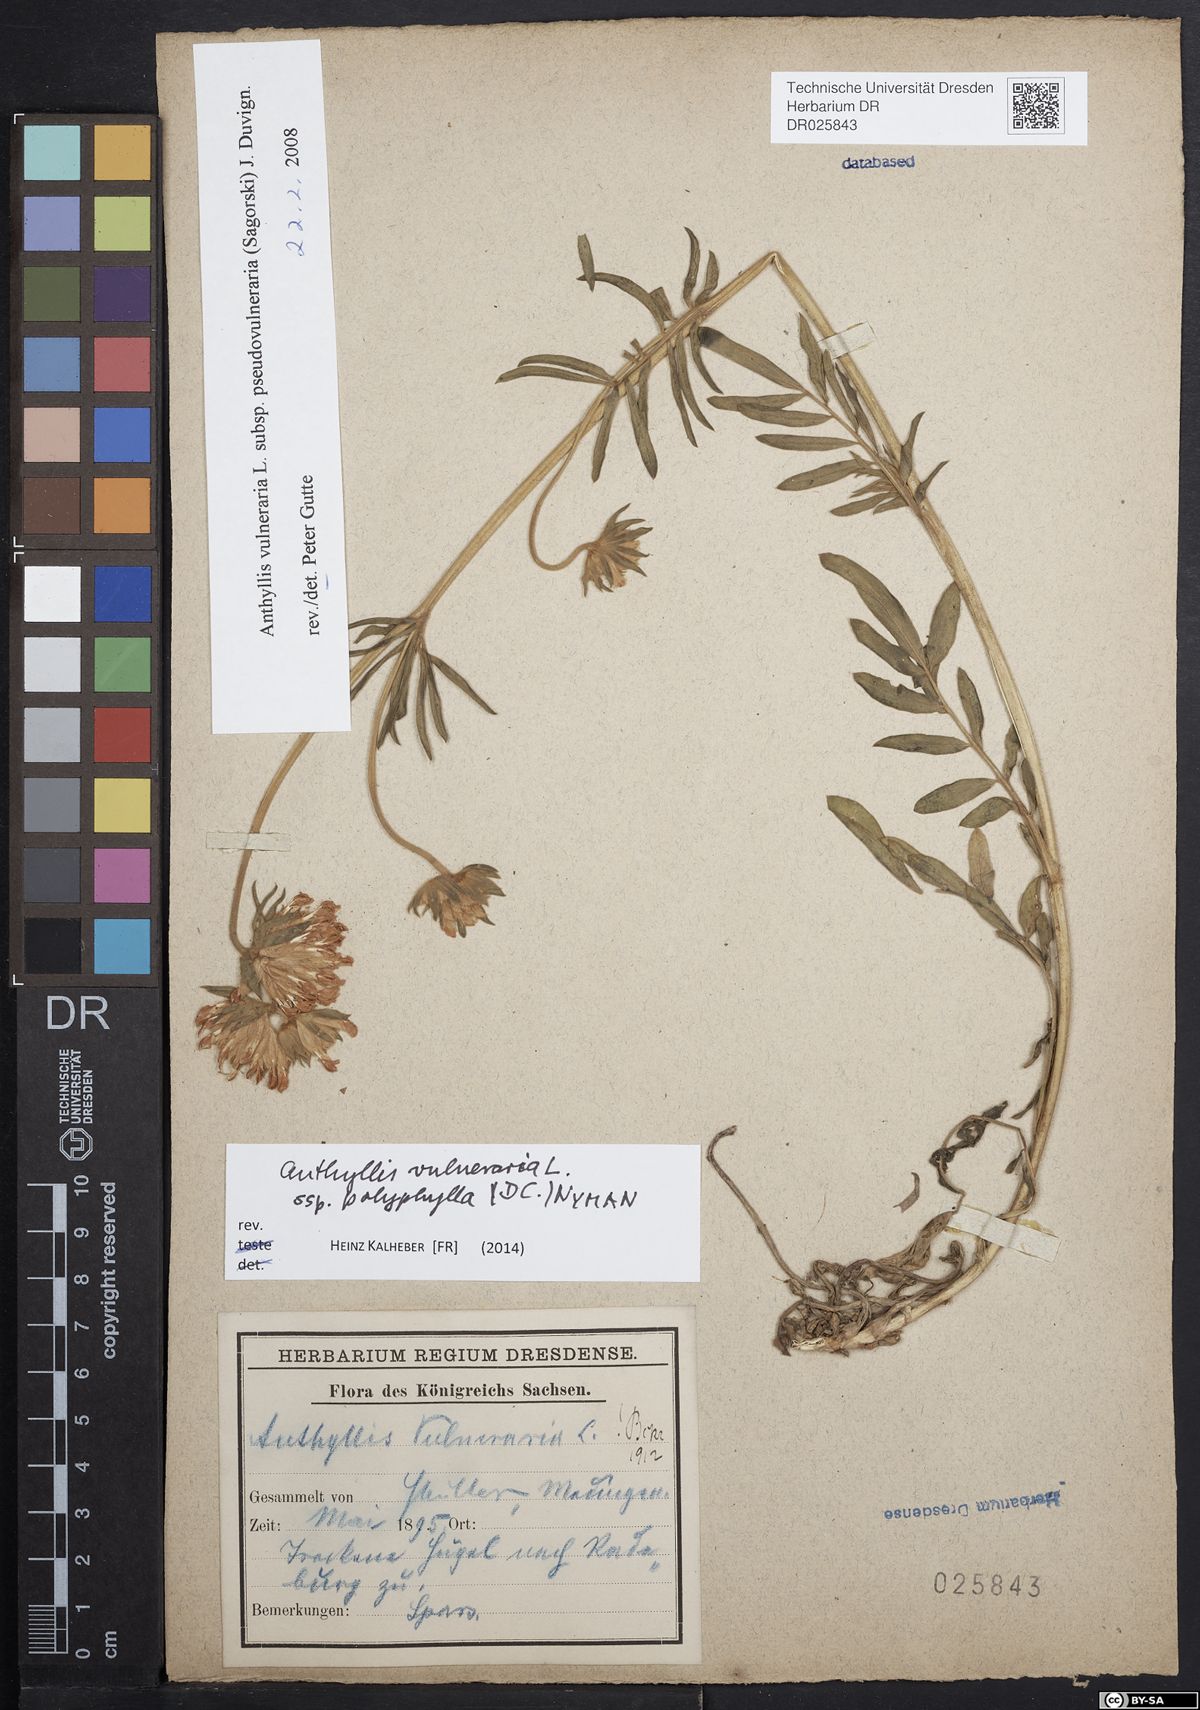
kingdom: Plantae
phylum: Tracheophyta
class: Magnoliopsida
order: Fabales
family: Fabaceae
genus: Anthyllis
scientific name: Anthyllis vulneraria
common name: Kidney vetch
